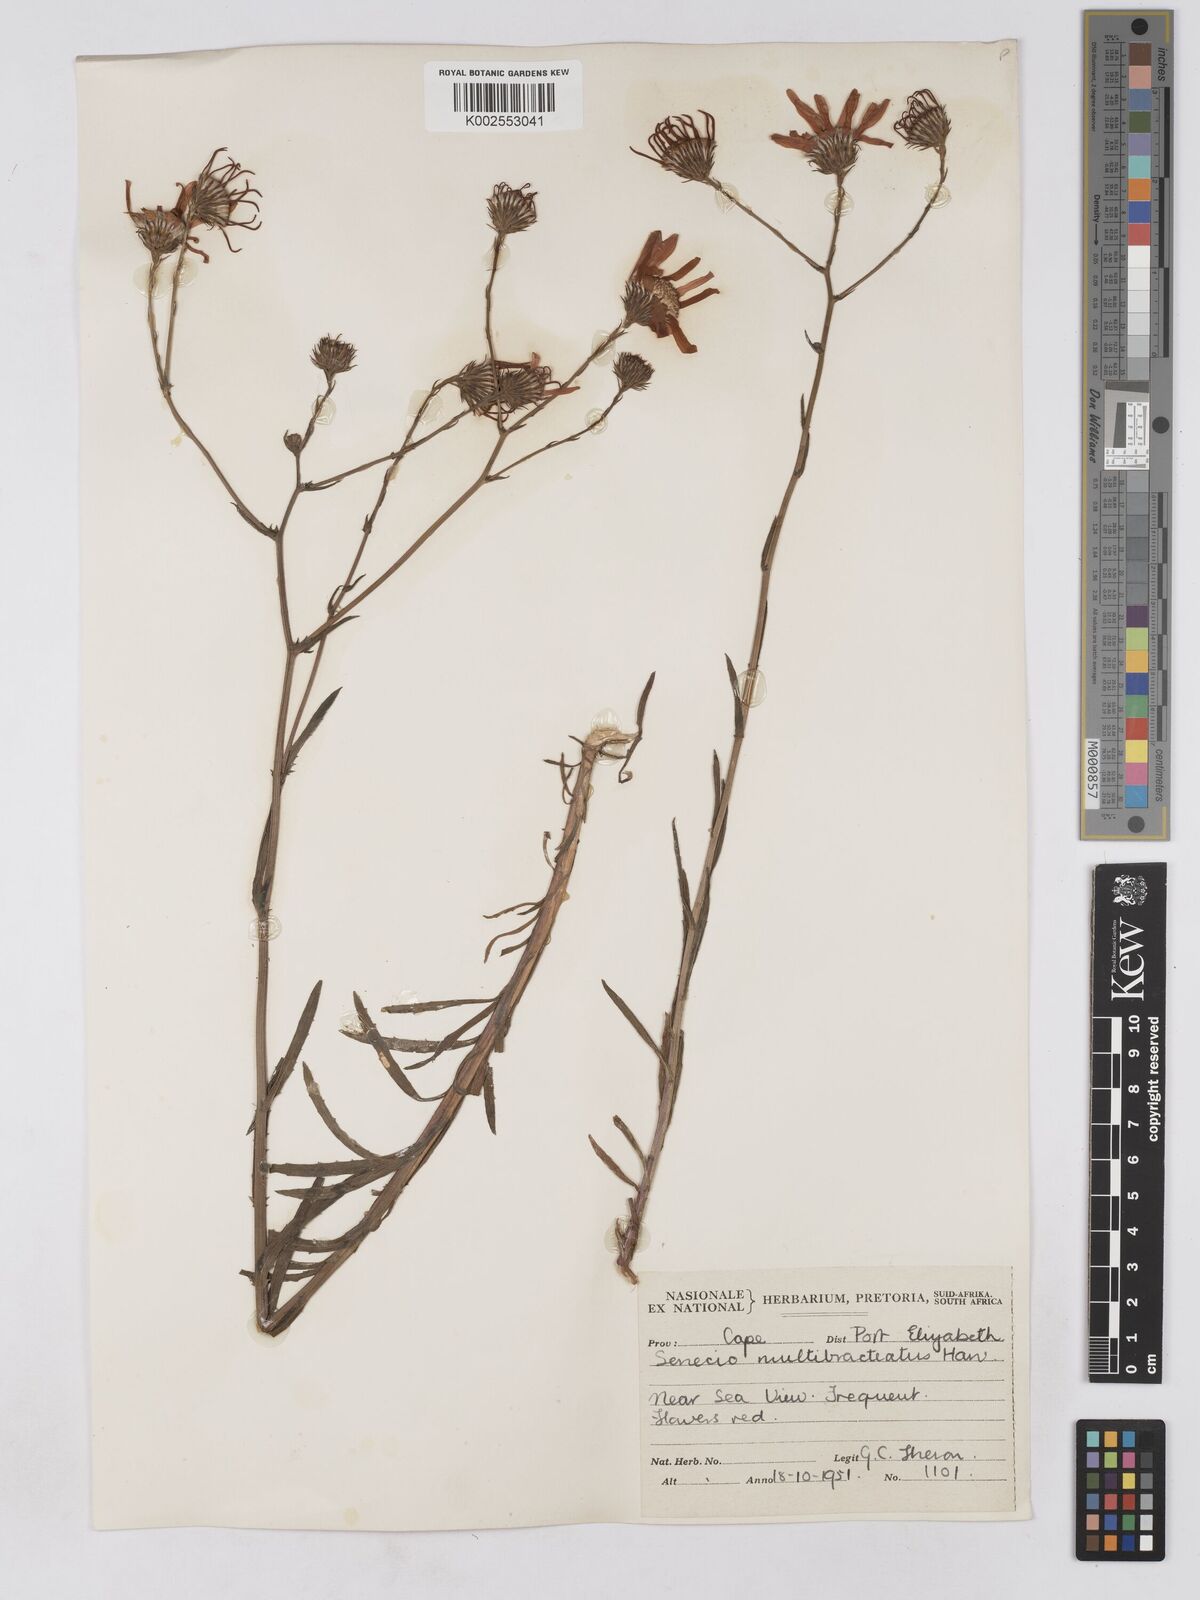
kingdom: Plantae
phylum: Tracheophyta
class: Magnoliopsida
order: Asterales
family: Asteraceae
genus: Senecio
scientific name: Senecio multibracteatus
